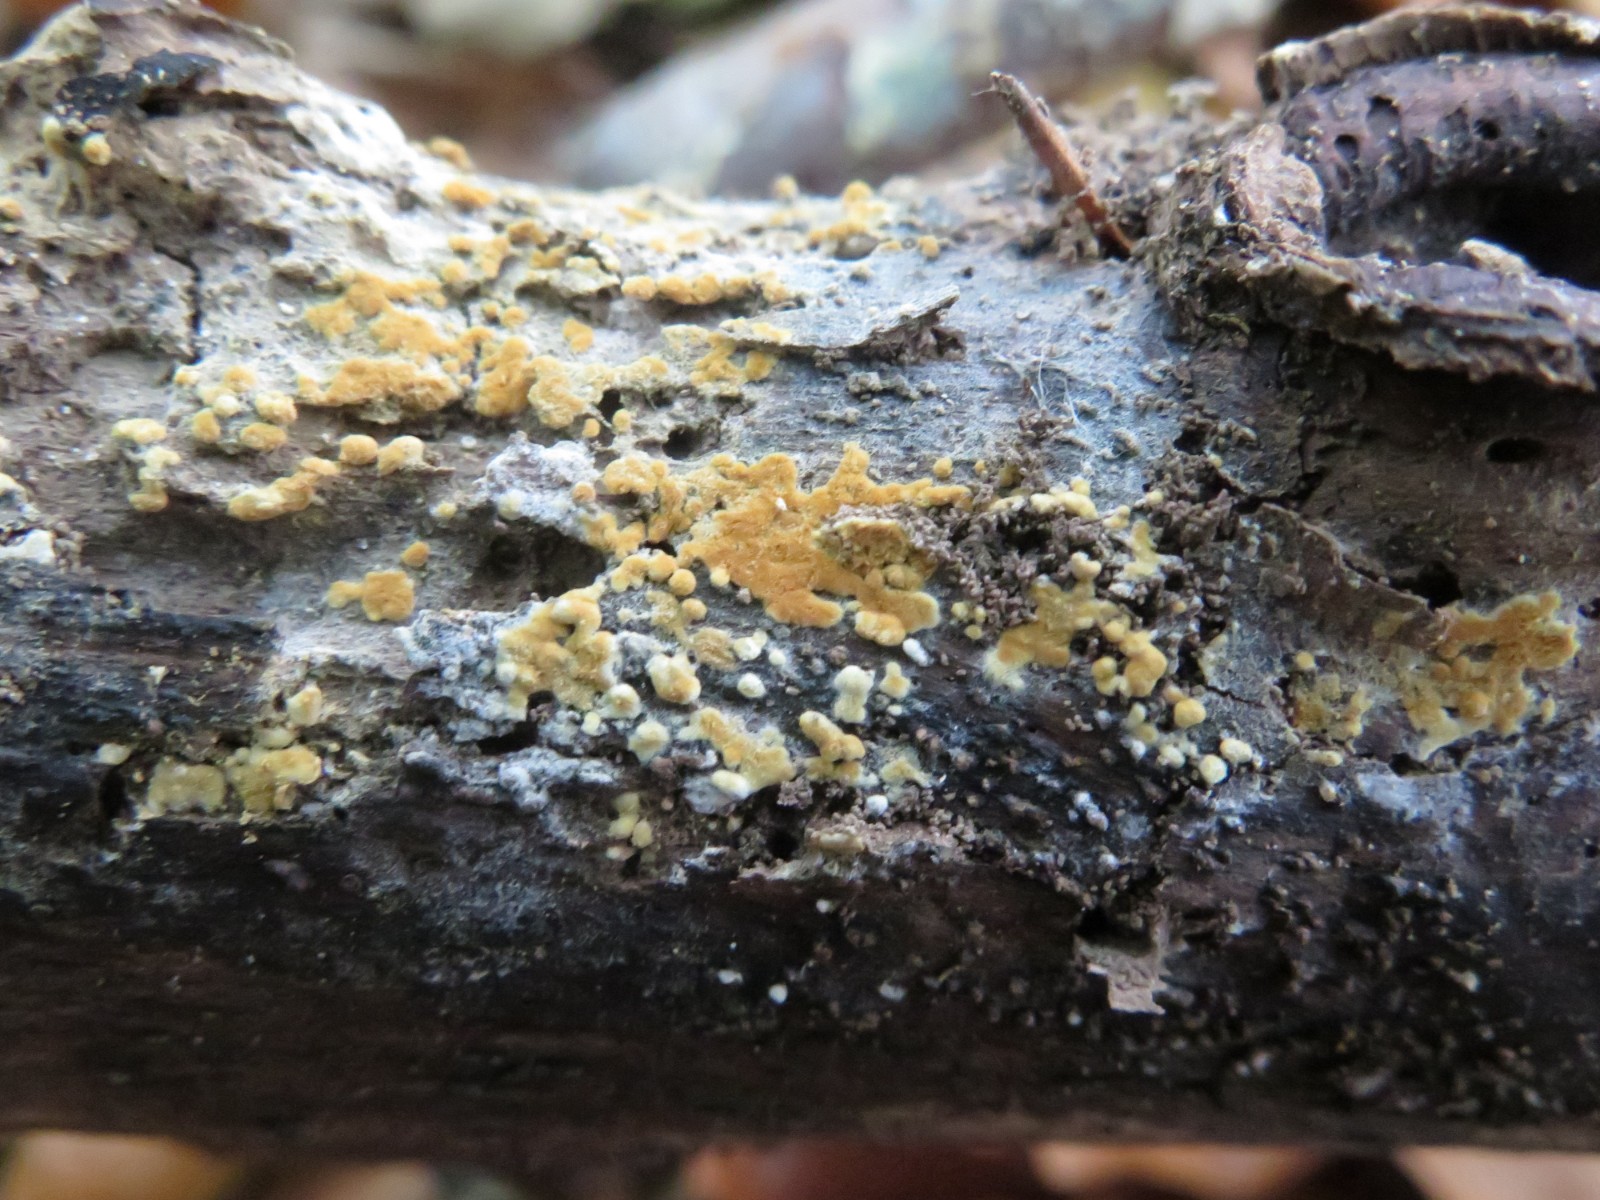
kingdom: Fungi
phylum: Basidiomycota
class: Agaricomycetes
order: Cantharellales
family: Botryobasidiaceae
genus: Botryobasidium
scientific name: Botryobasidium aureum
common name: gylden spindhinde
